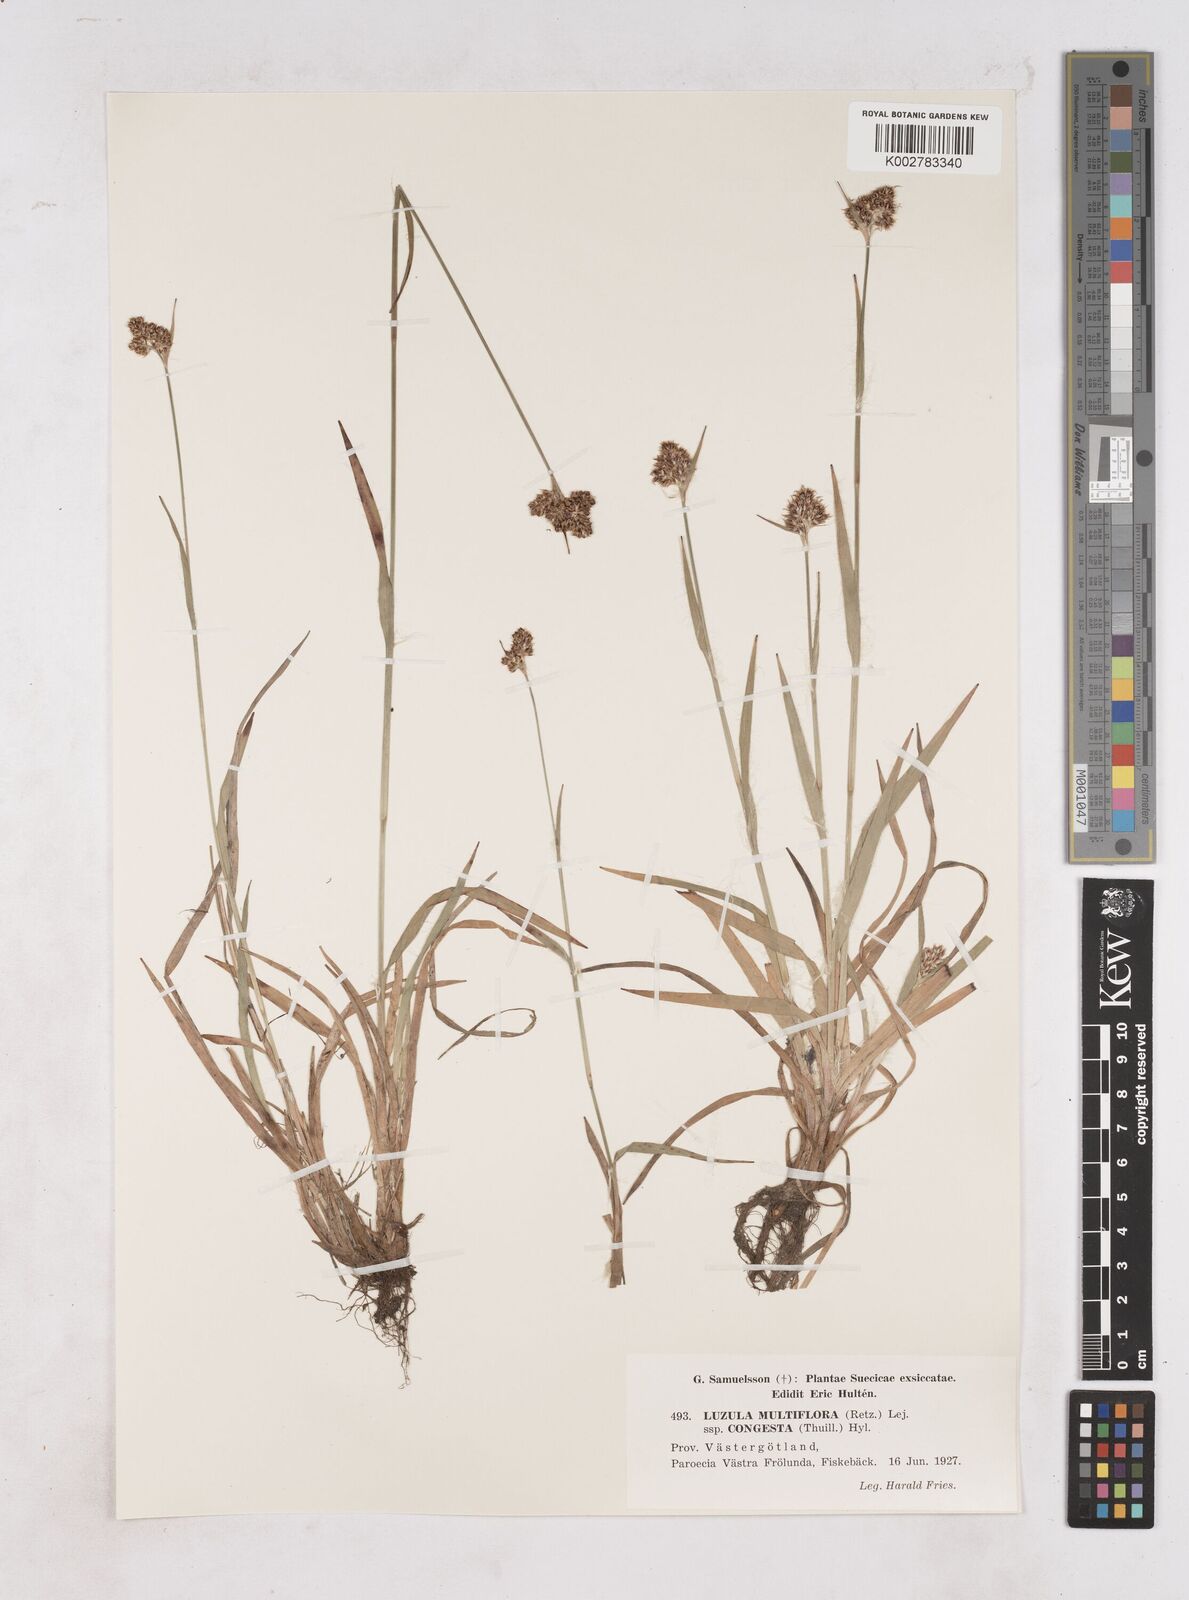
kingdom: Plantae
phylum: Tracheophyta
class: Liliopsida
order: Poales
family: Juncaceae
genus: Luzula
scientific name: Luzula multiflora
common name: Heath wood-rush
